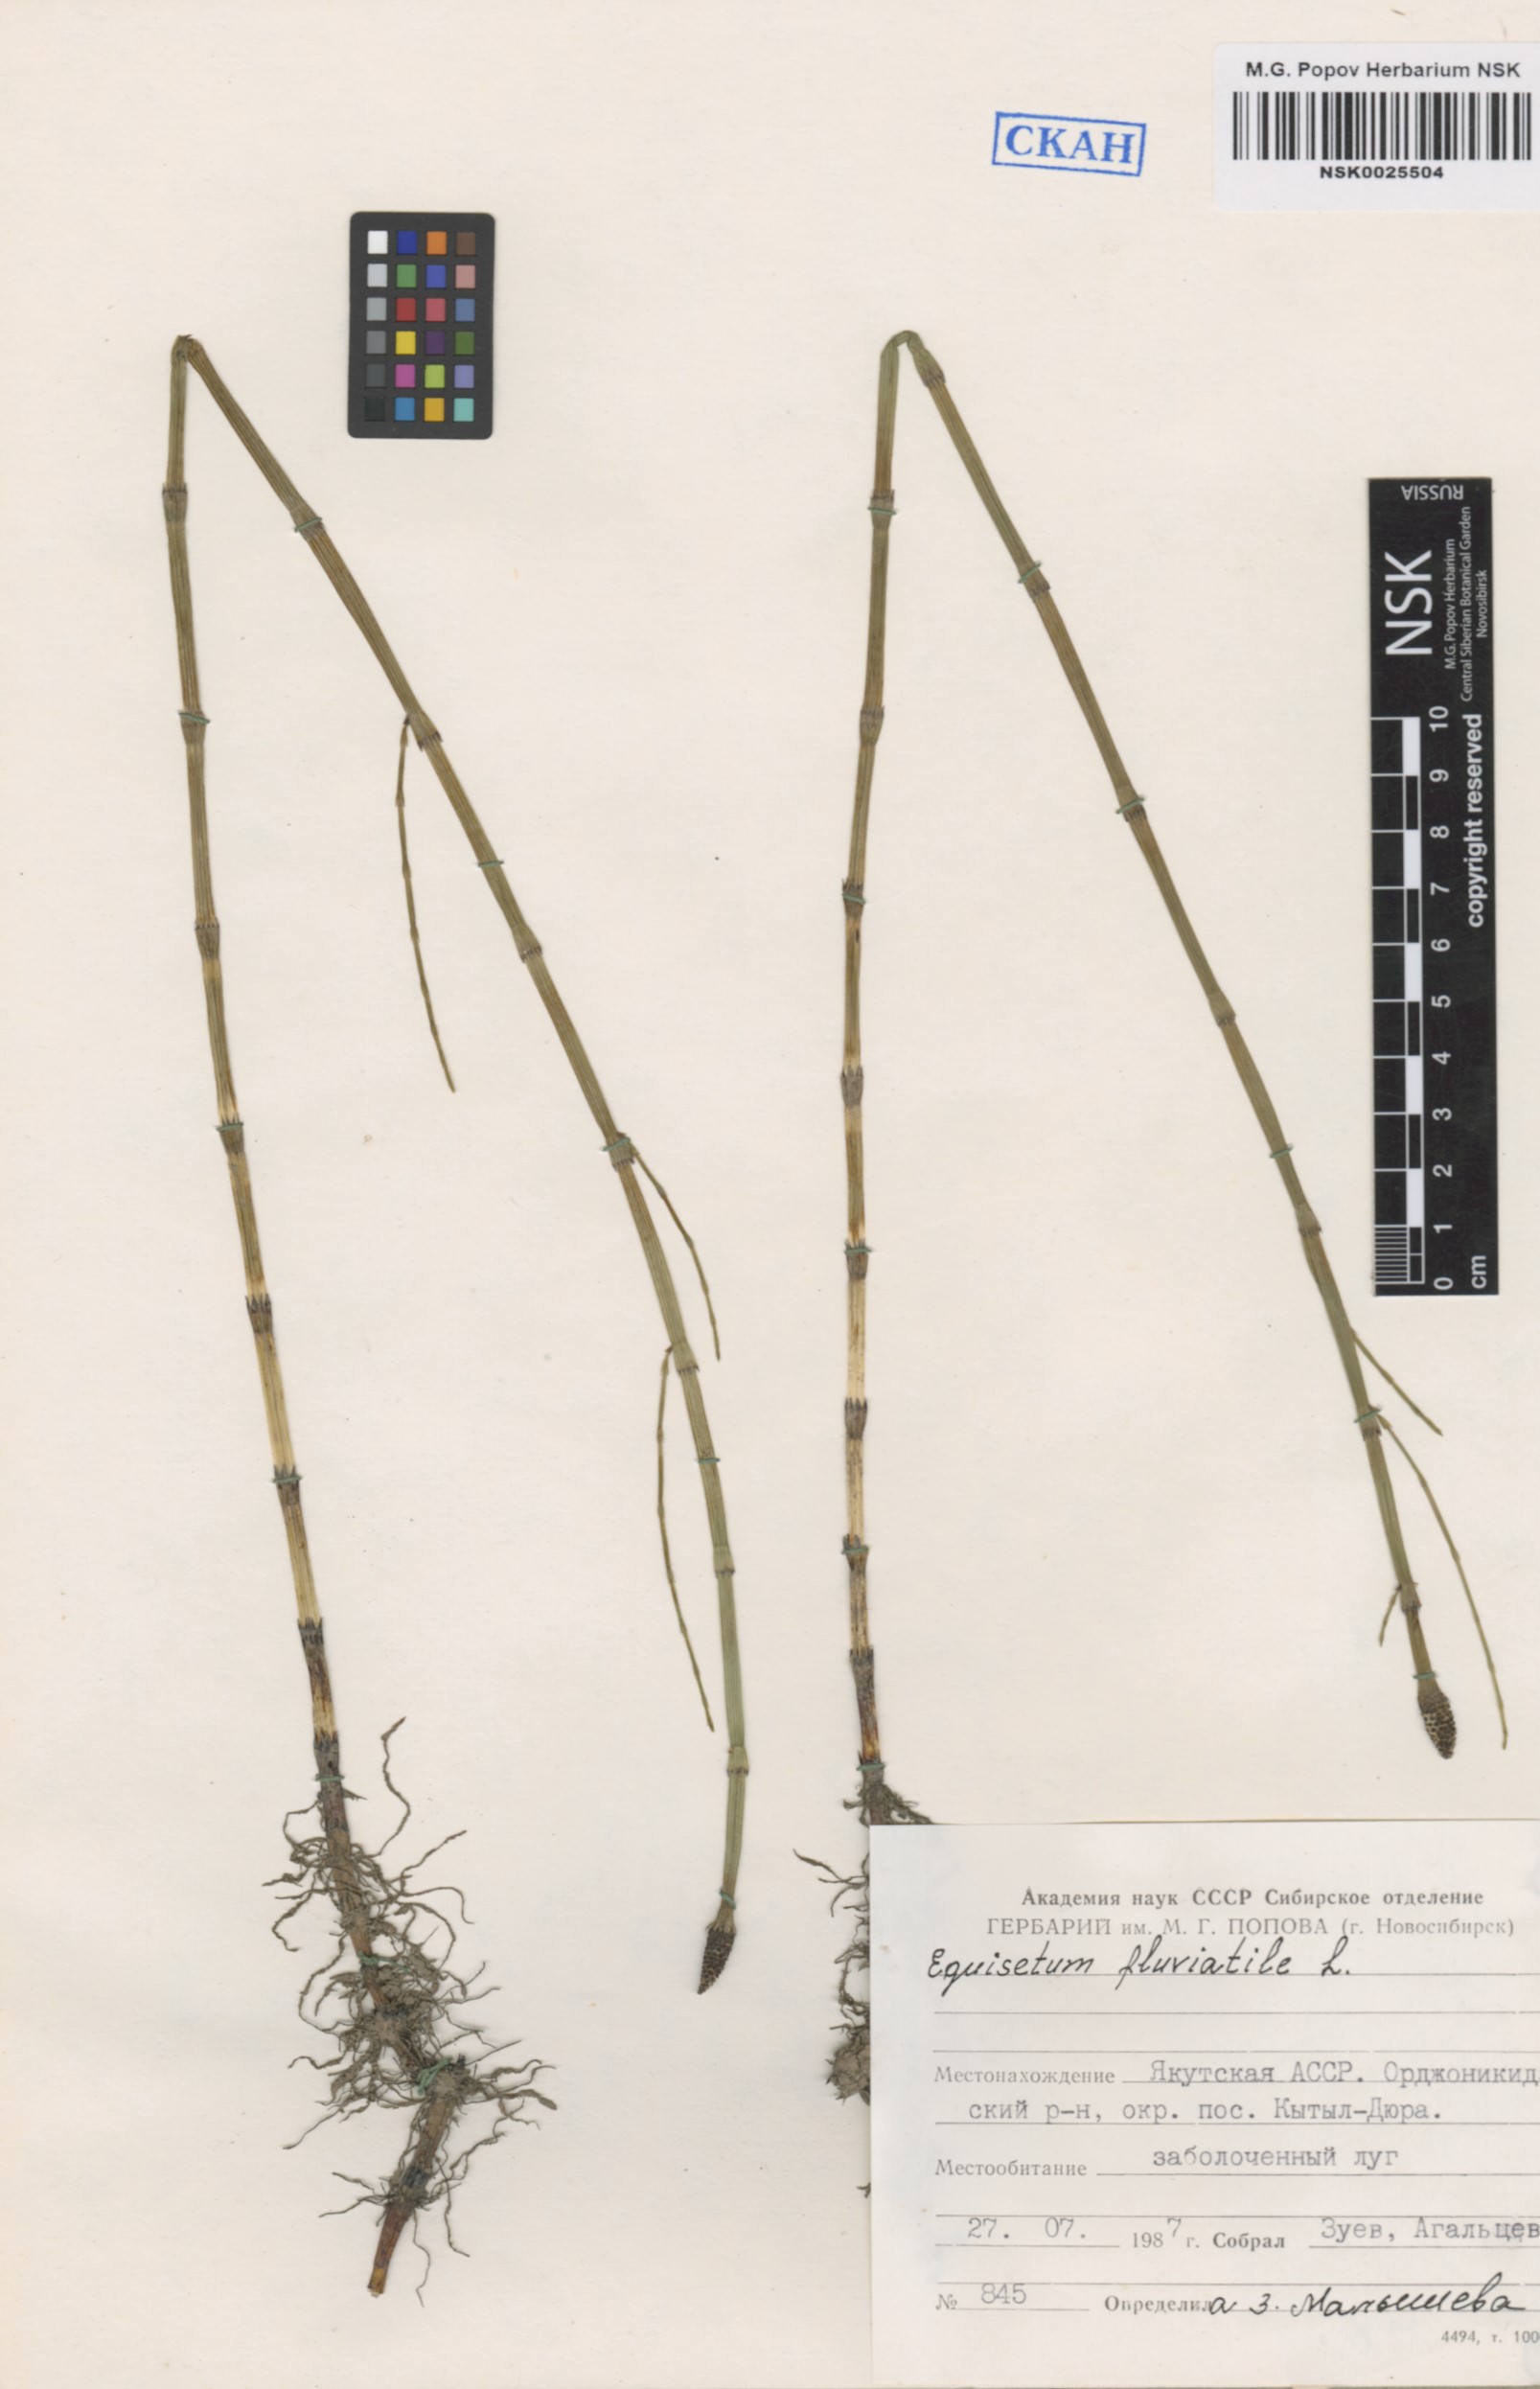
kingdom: Plantae
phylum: Tracheophyta
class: Polypodiopsida
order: Equisetales
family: Equisetaceae
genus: Equisetum
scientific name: Equisetum fluviatile
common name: Water horsetail
